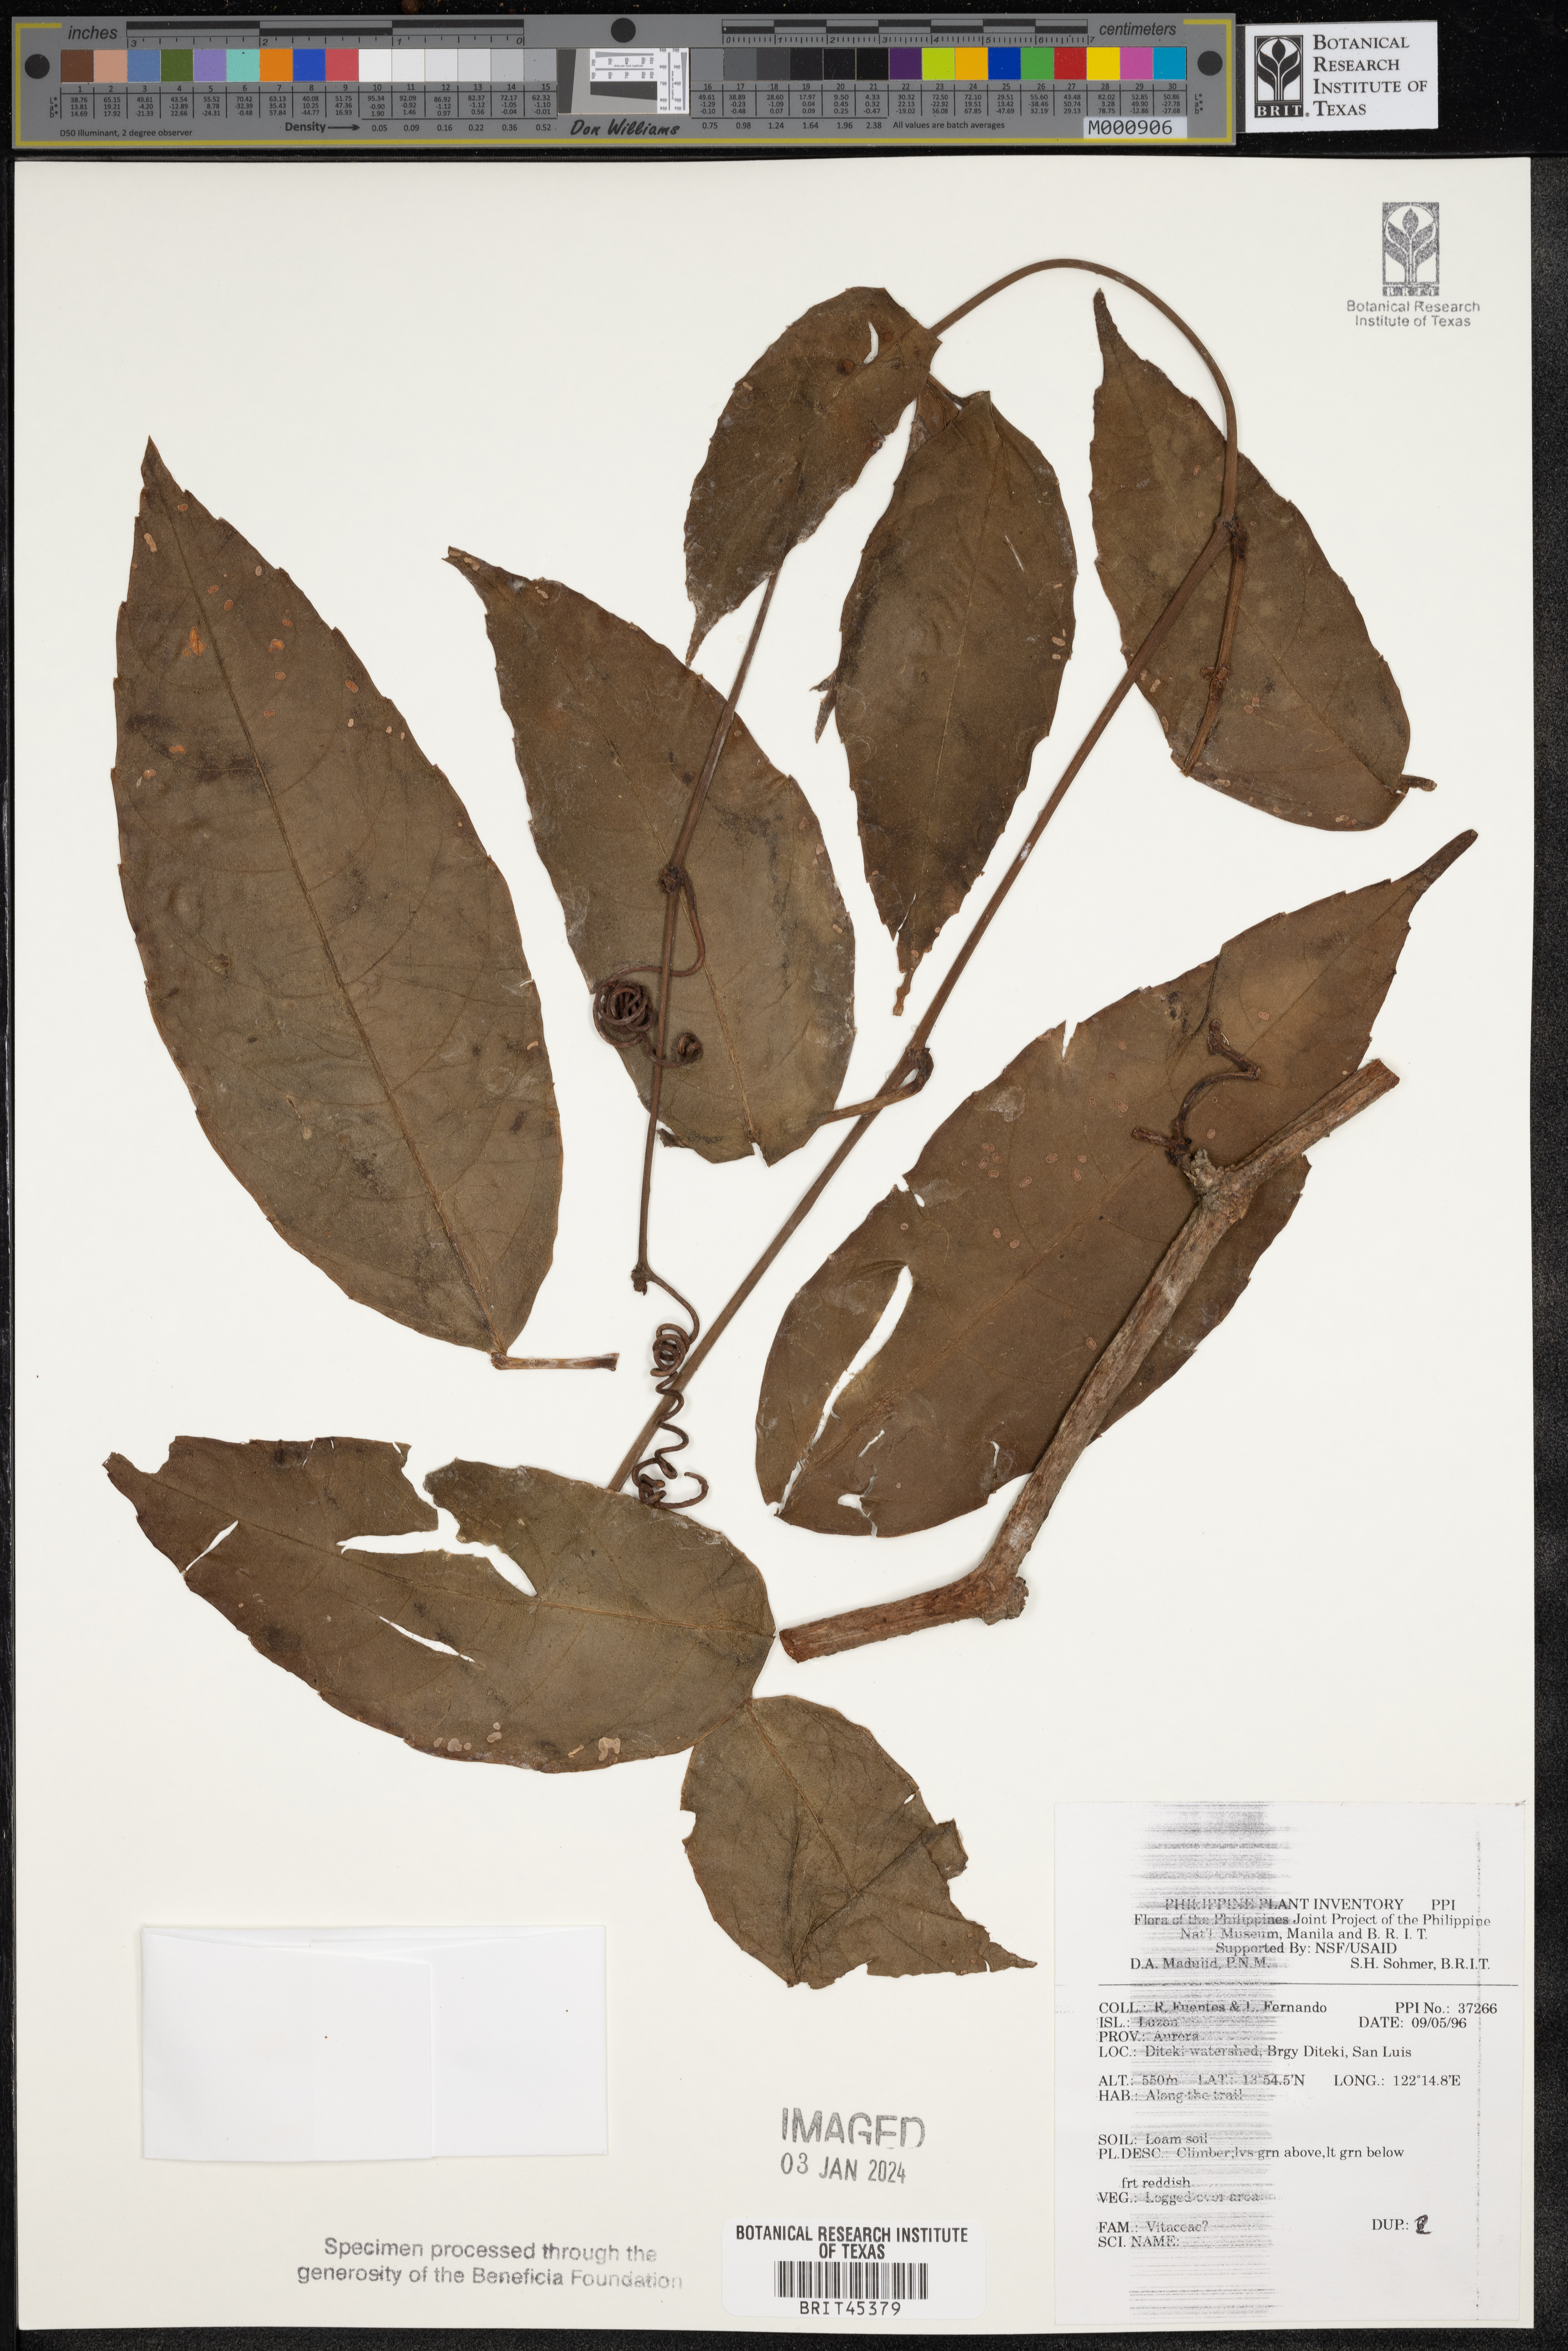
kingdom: Plantae
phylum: Tracheophyta
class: Magnoliopsida
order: Vitales
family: Vitaceae
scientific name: Vitaceae
